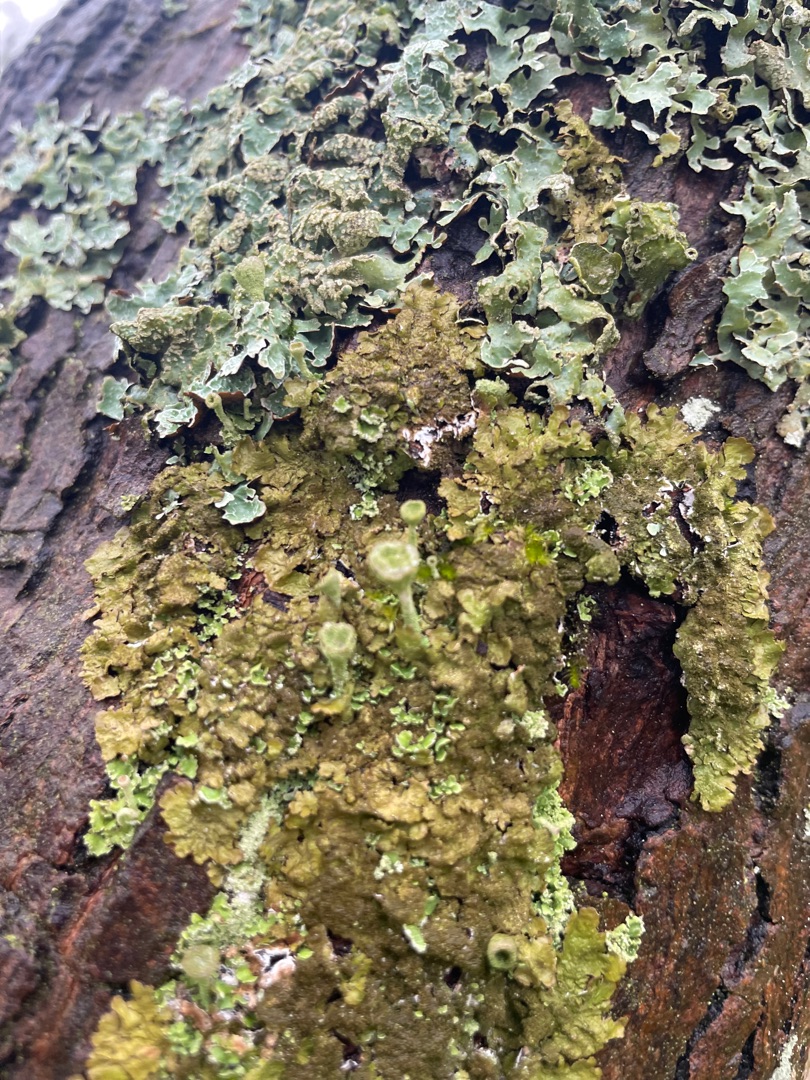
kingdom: Fungi
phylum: Ascomycota
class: Lecanoromycetes
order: Lecanorales
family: Parmeliaceae
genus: Melanelixia
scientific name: Melanelixia glabratula
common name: Glinsende skållav
